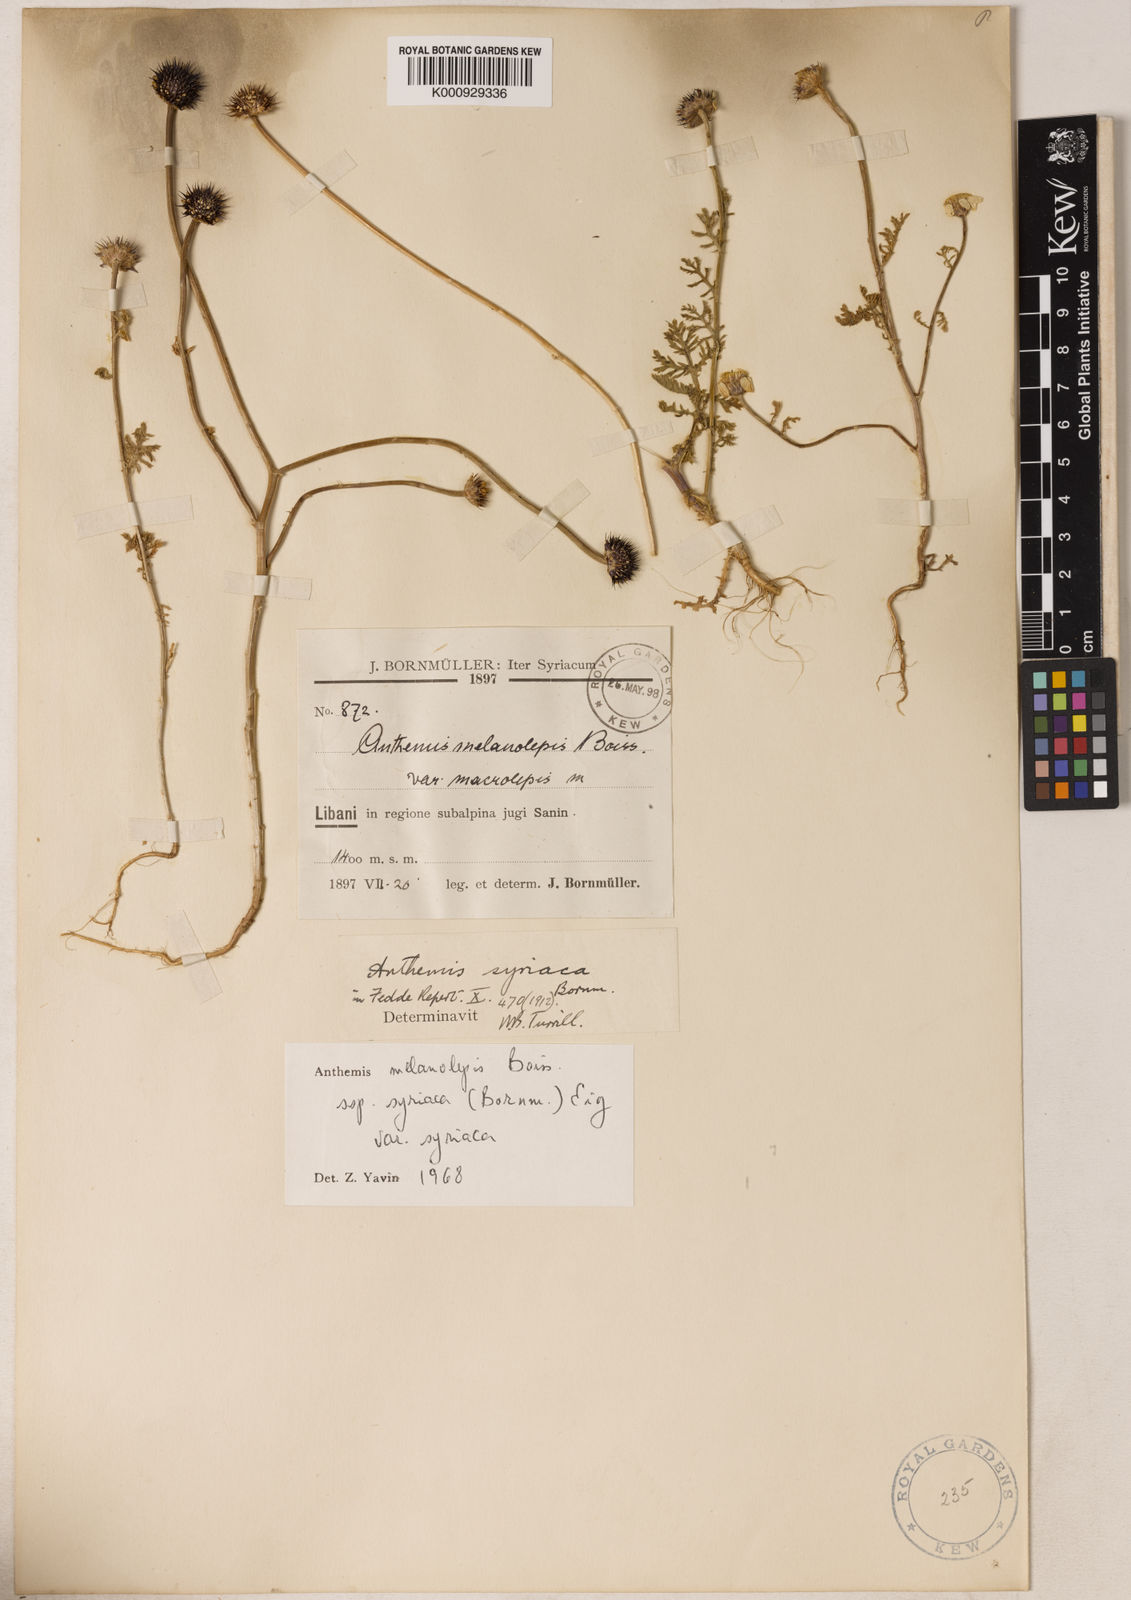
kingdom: Plantae
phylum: Tracheophyta
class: Magnoliopsida
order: Asterales
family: Asteraceae
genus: Cota
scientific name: Cota palaestina
